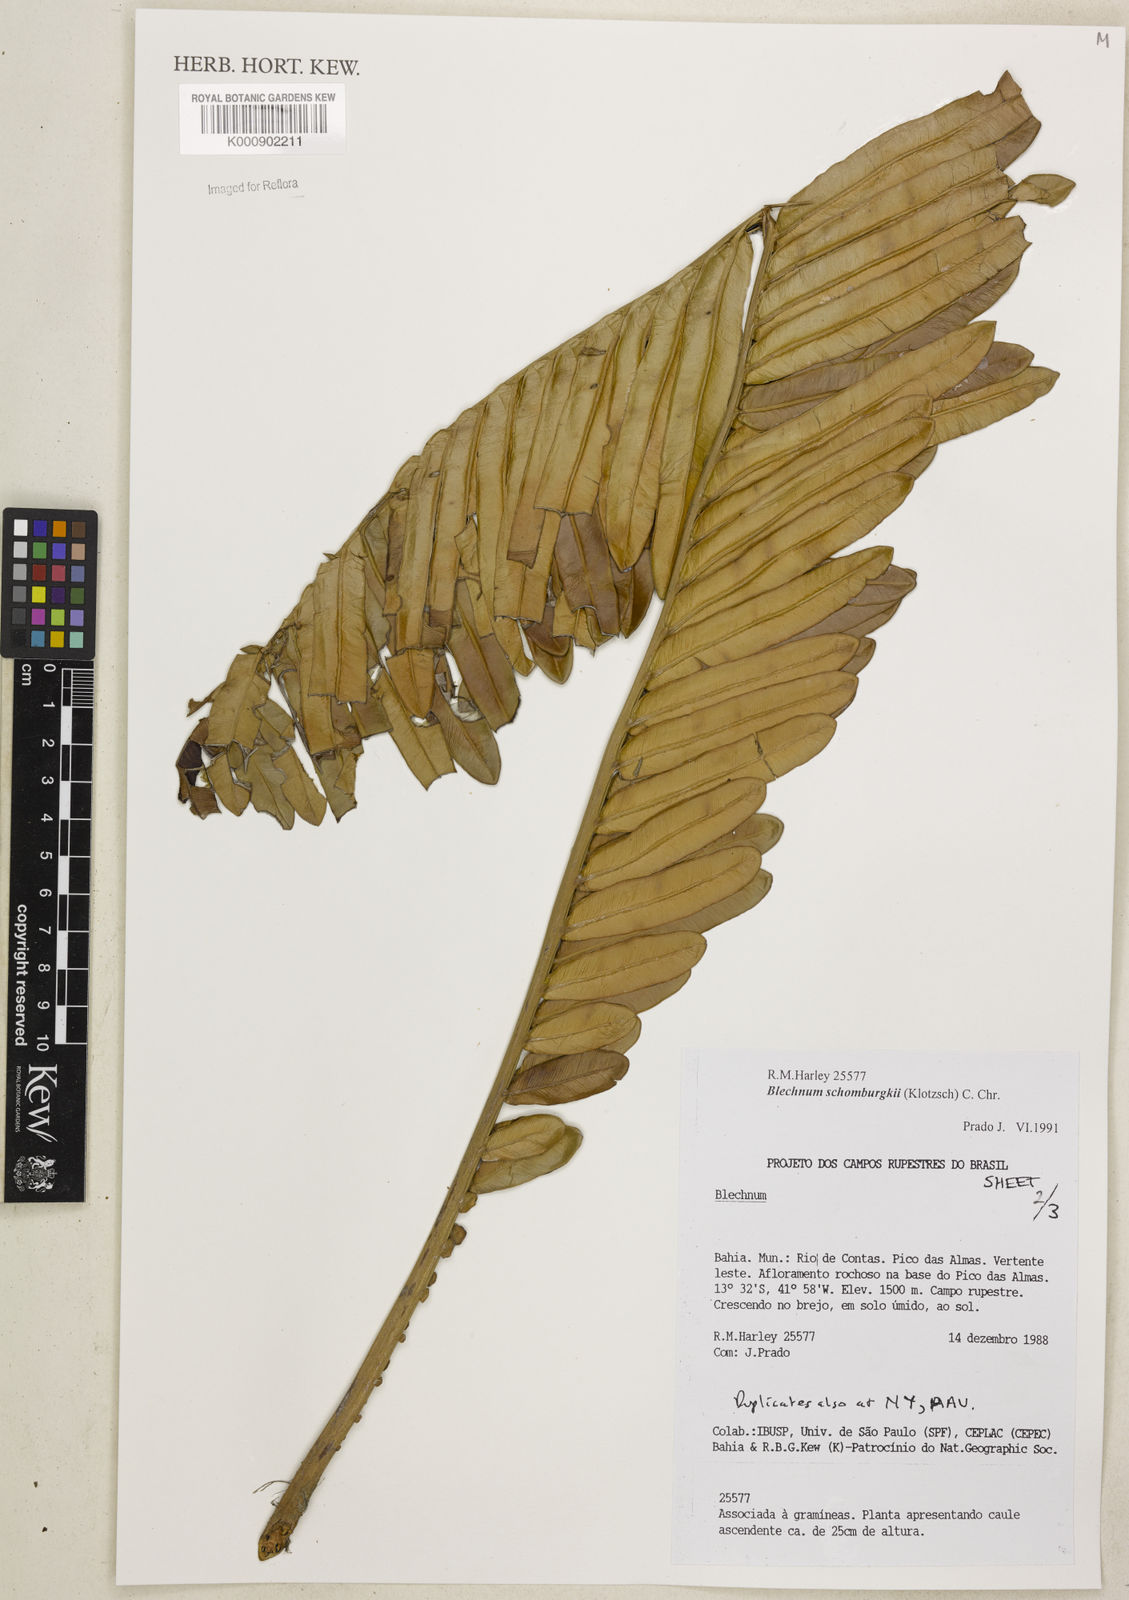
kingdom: Plantae
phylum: Tracheophyta
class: Polypodiopsida
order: Polypodiales
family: Blechnaceae
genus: Lomariocycas
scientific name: Lomariocycas schomburgkii
